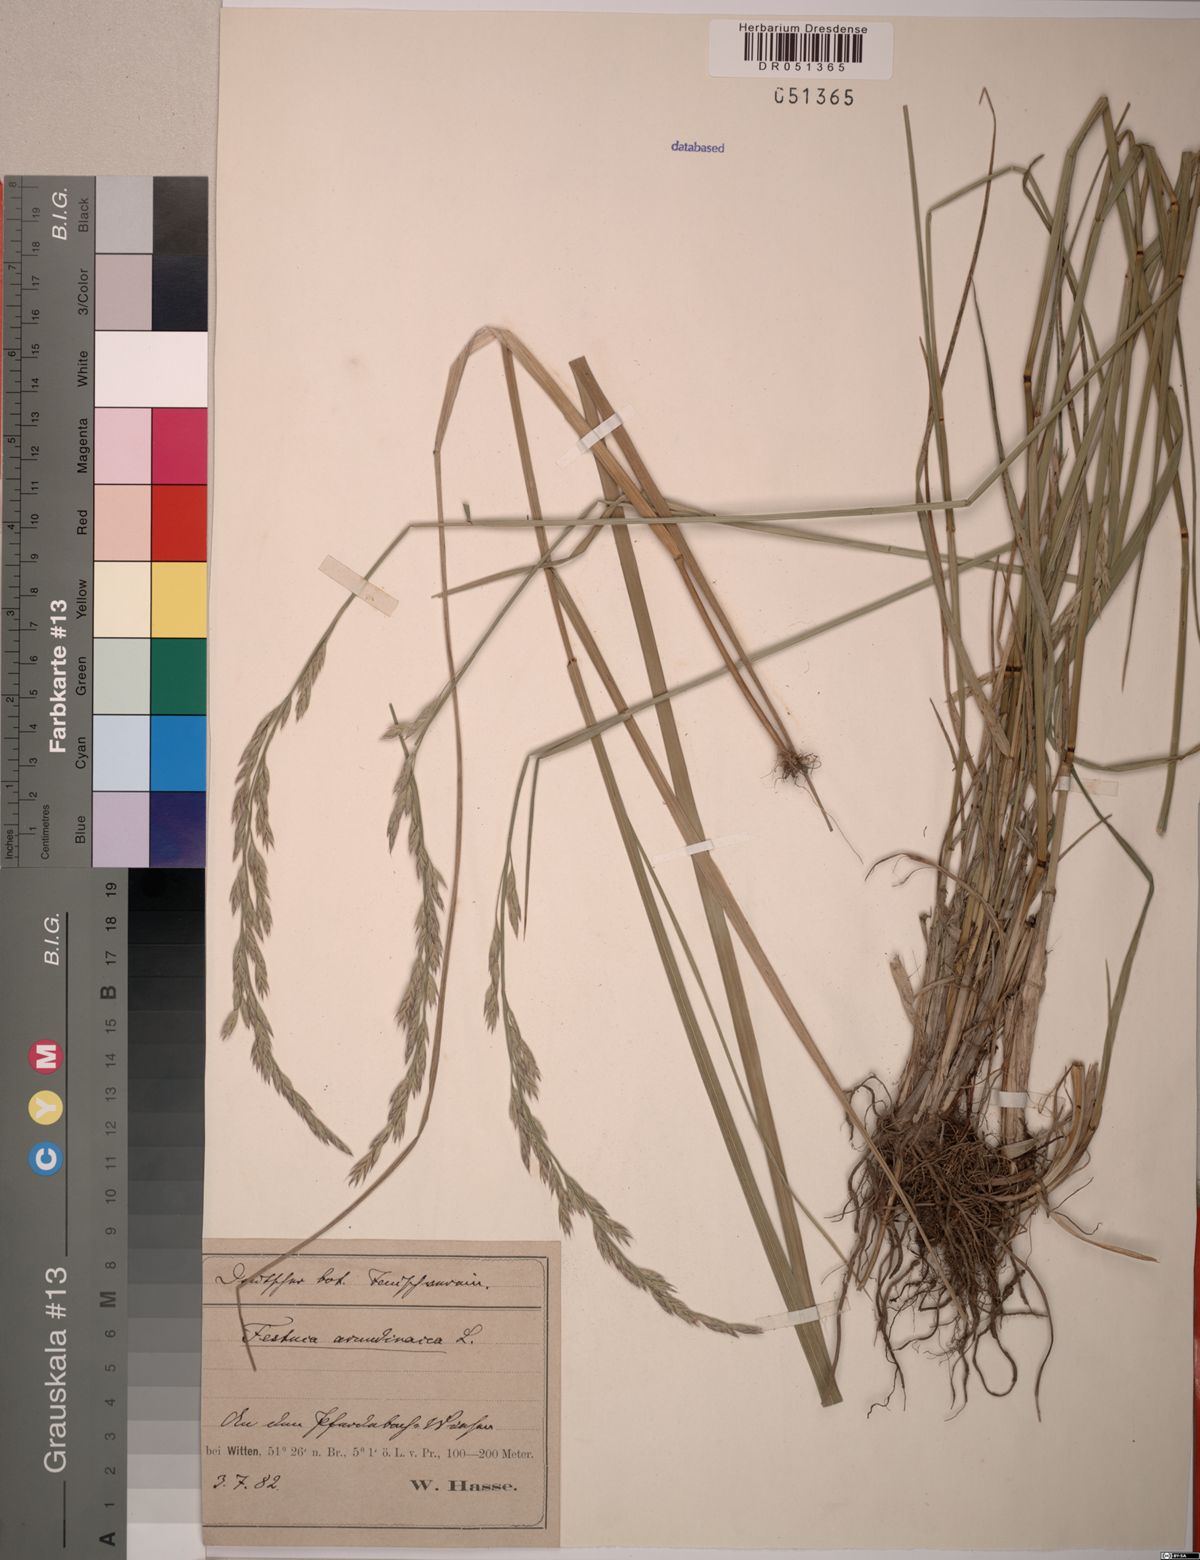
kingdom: Plantae
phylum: Tracheophyta
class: Liliopsida
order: Poales
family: Poaceae
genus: Lolium
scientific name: Lolium arundinaceum
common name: Reed fescue
